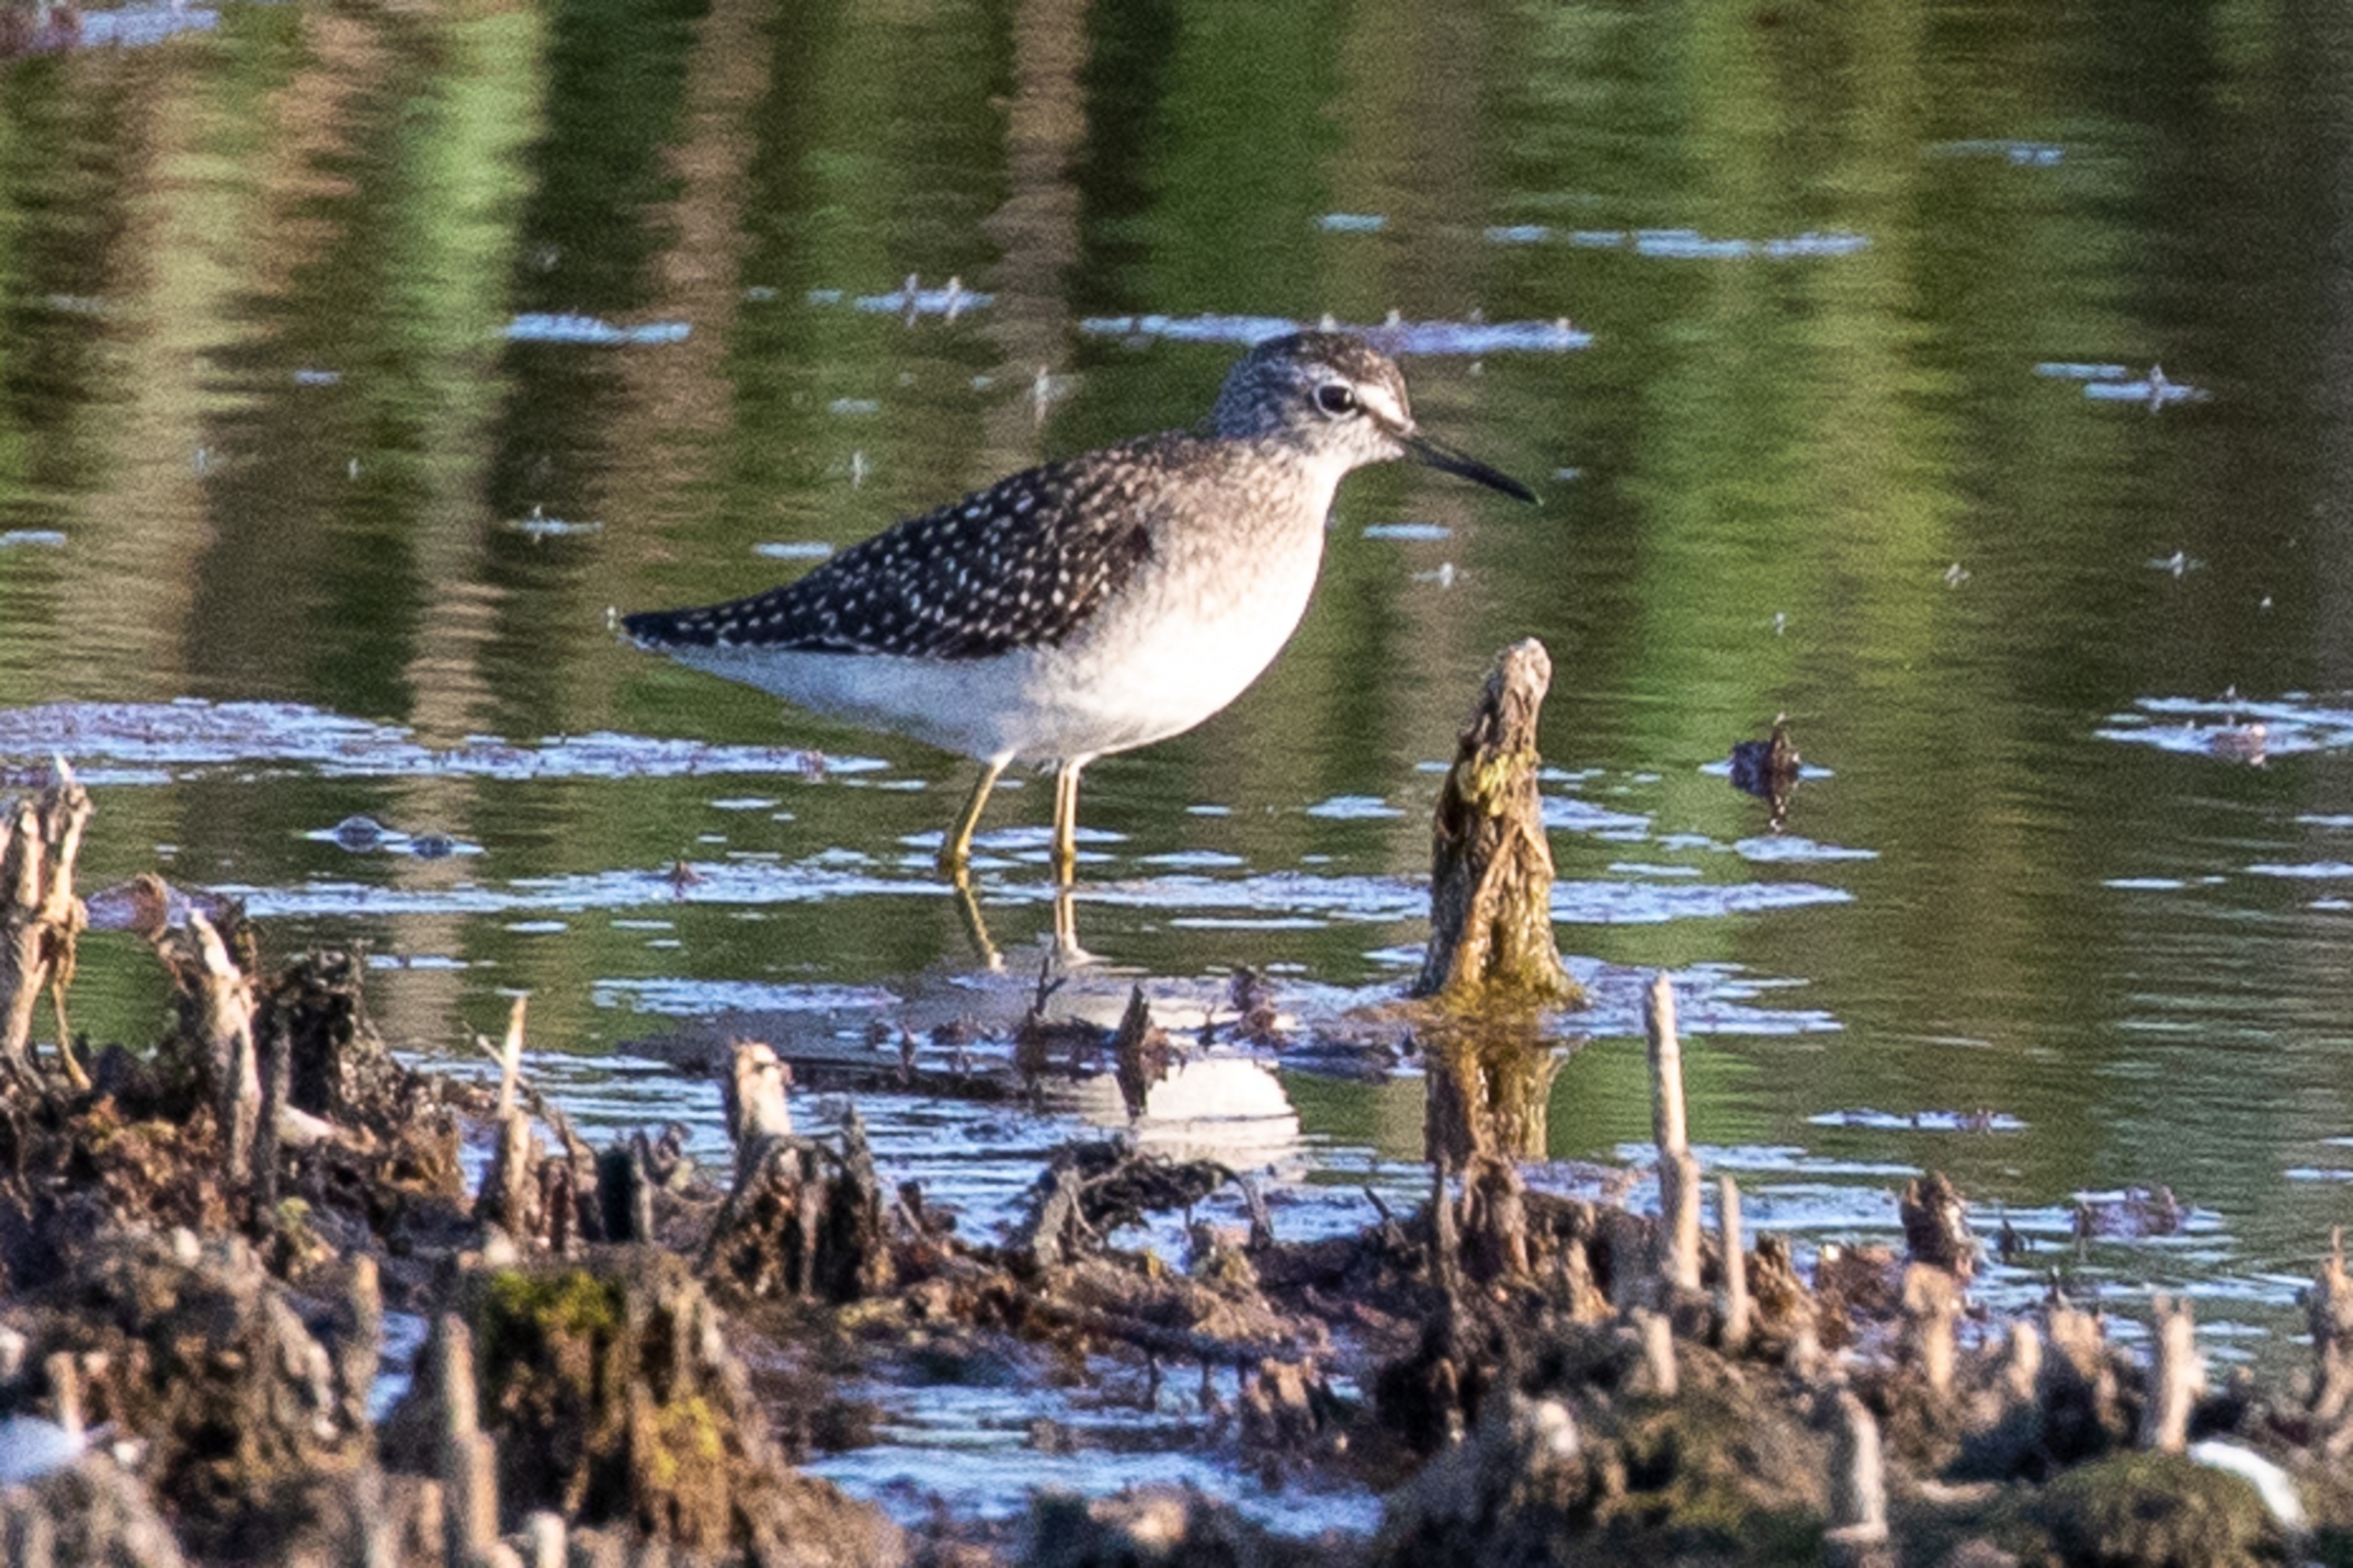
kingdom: Animalia
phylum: Chordata
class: Aves
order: Charadriiformes
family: Scolopacidae
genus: Tringa
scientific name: Tringa glareola
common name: Tinksmed
